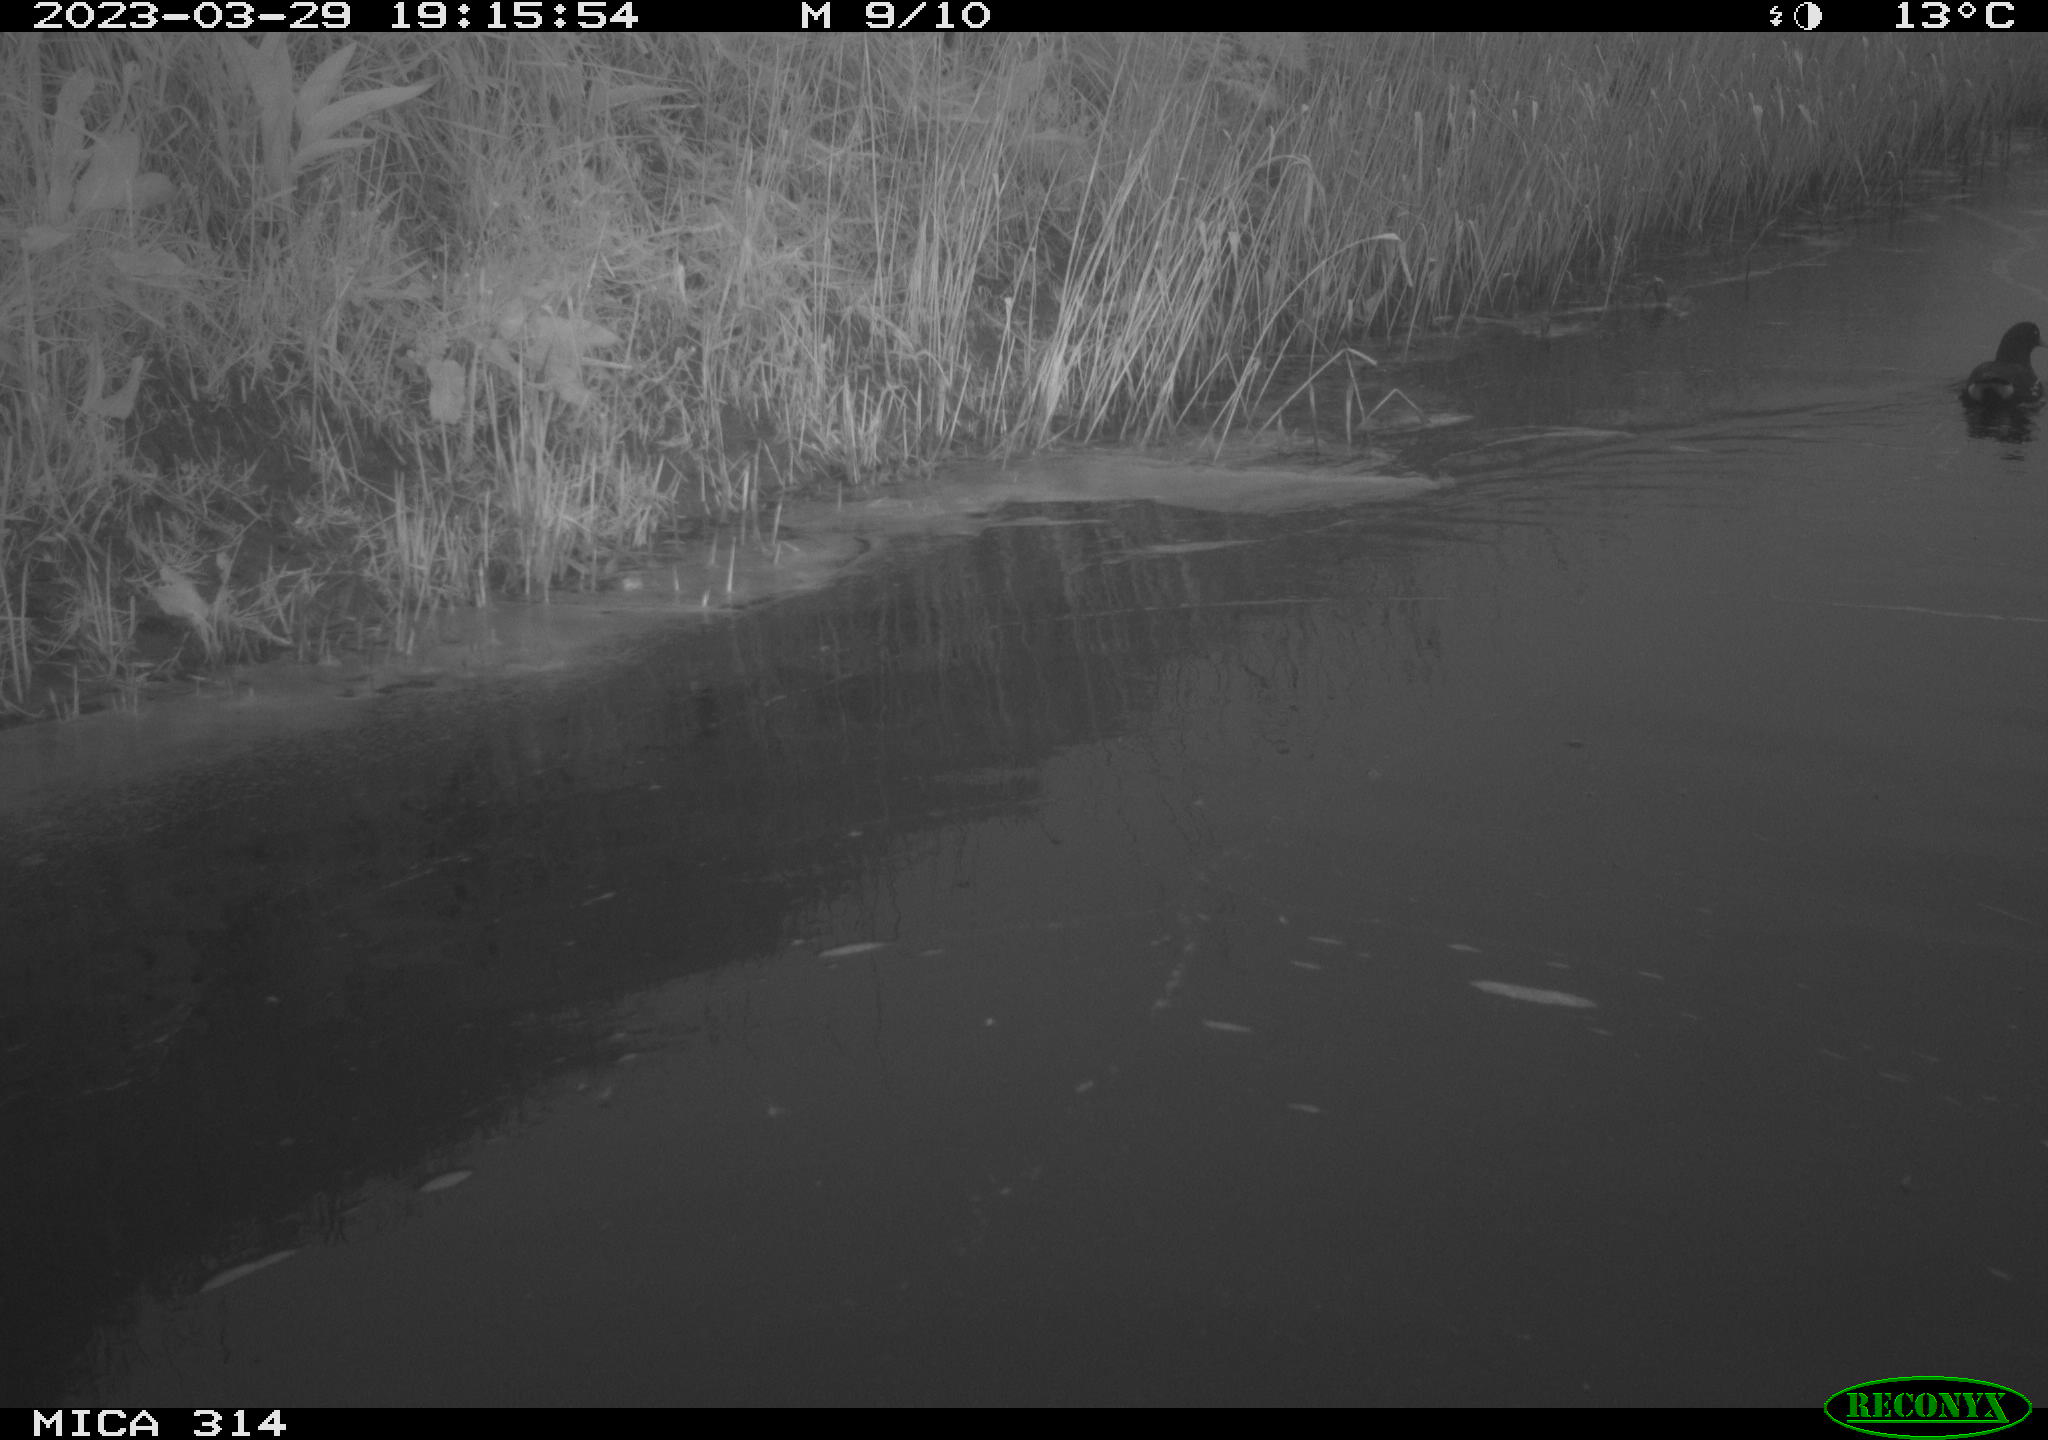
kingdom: Animalia
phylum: Chordata
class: Aves
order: Gruiformes
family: Rallidae
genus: Gallinula
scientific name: Gallinula chloropus
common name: Common moorhen
